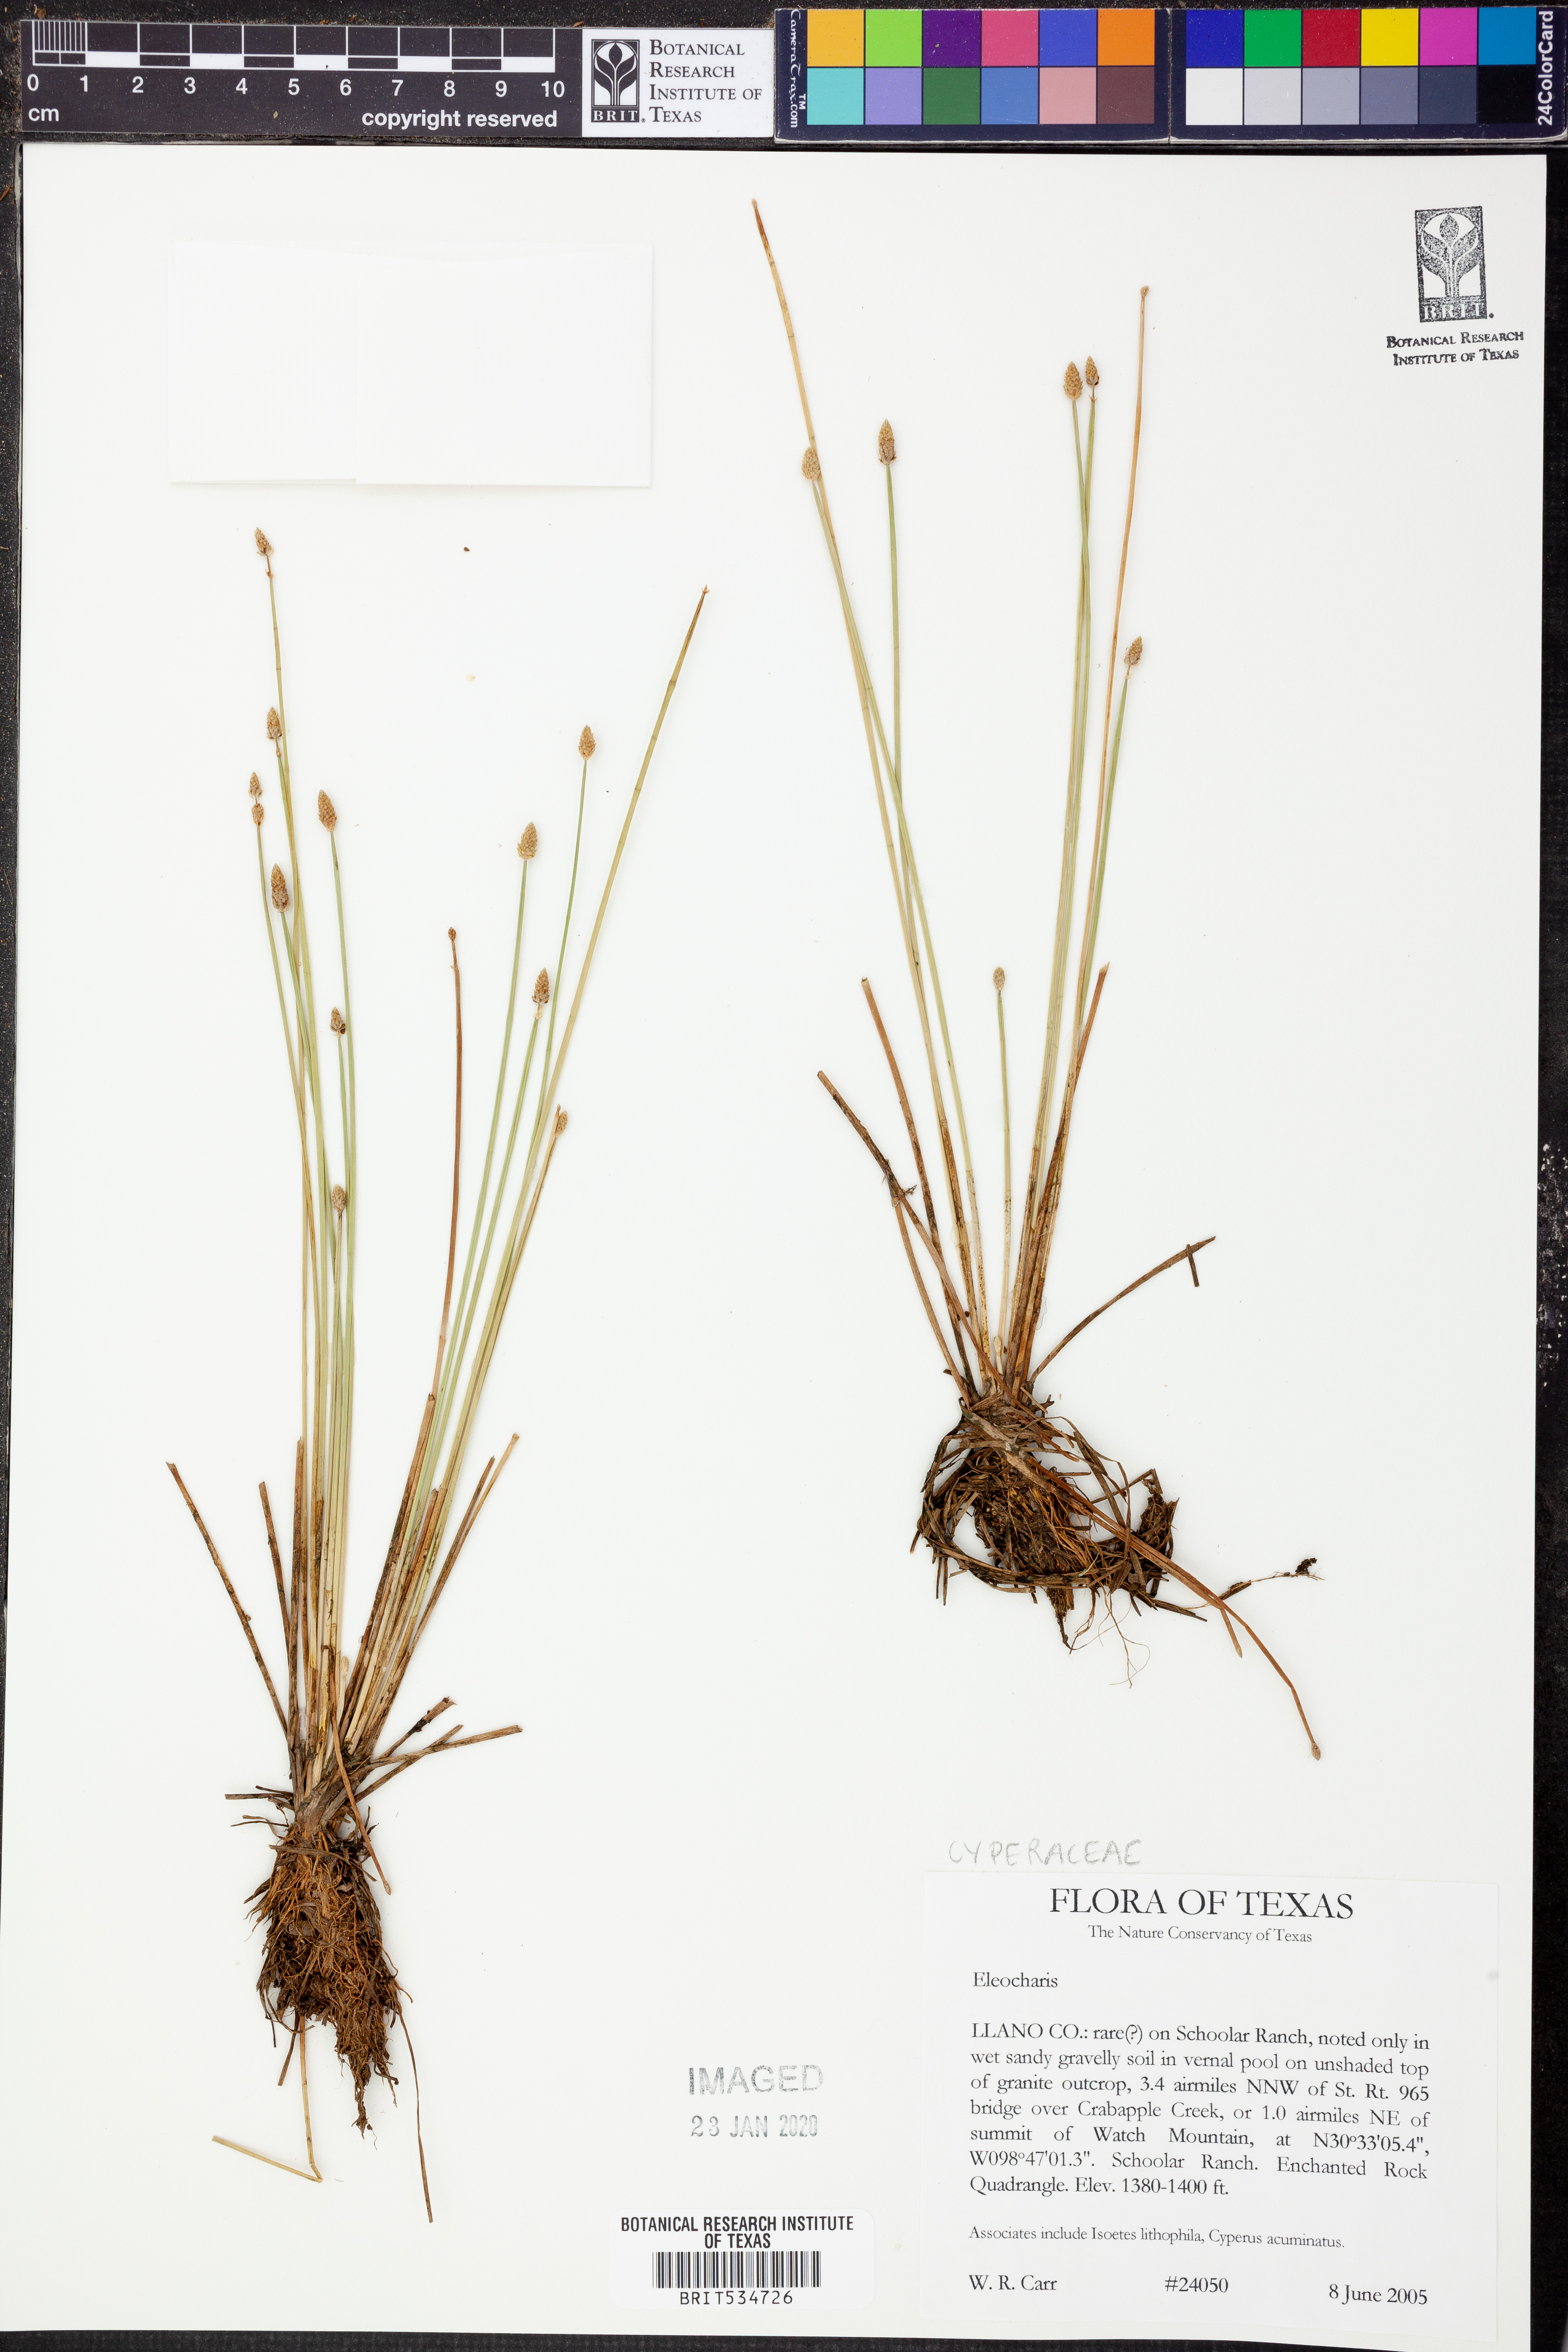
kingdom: Plantae
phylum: Tracheophyta
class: Liliopsida
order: Poales
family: Cyperaceae
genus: Eleocharis
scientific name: Eleocharis
